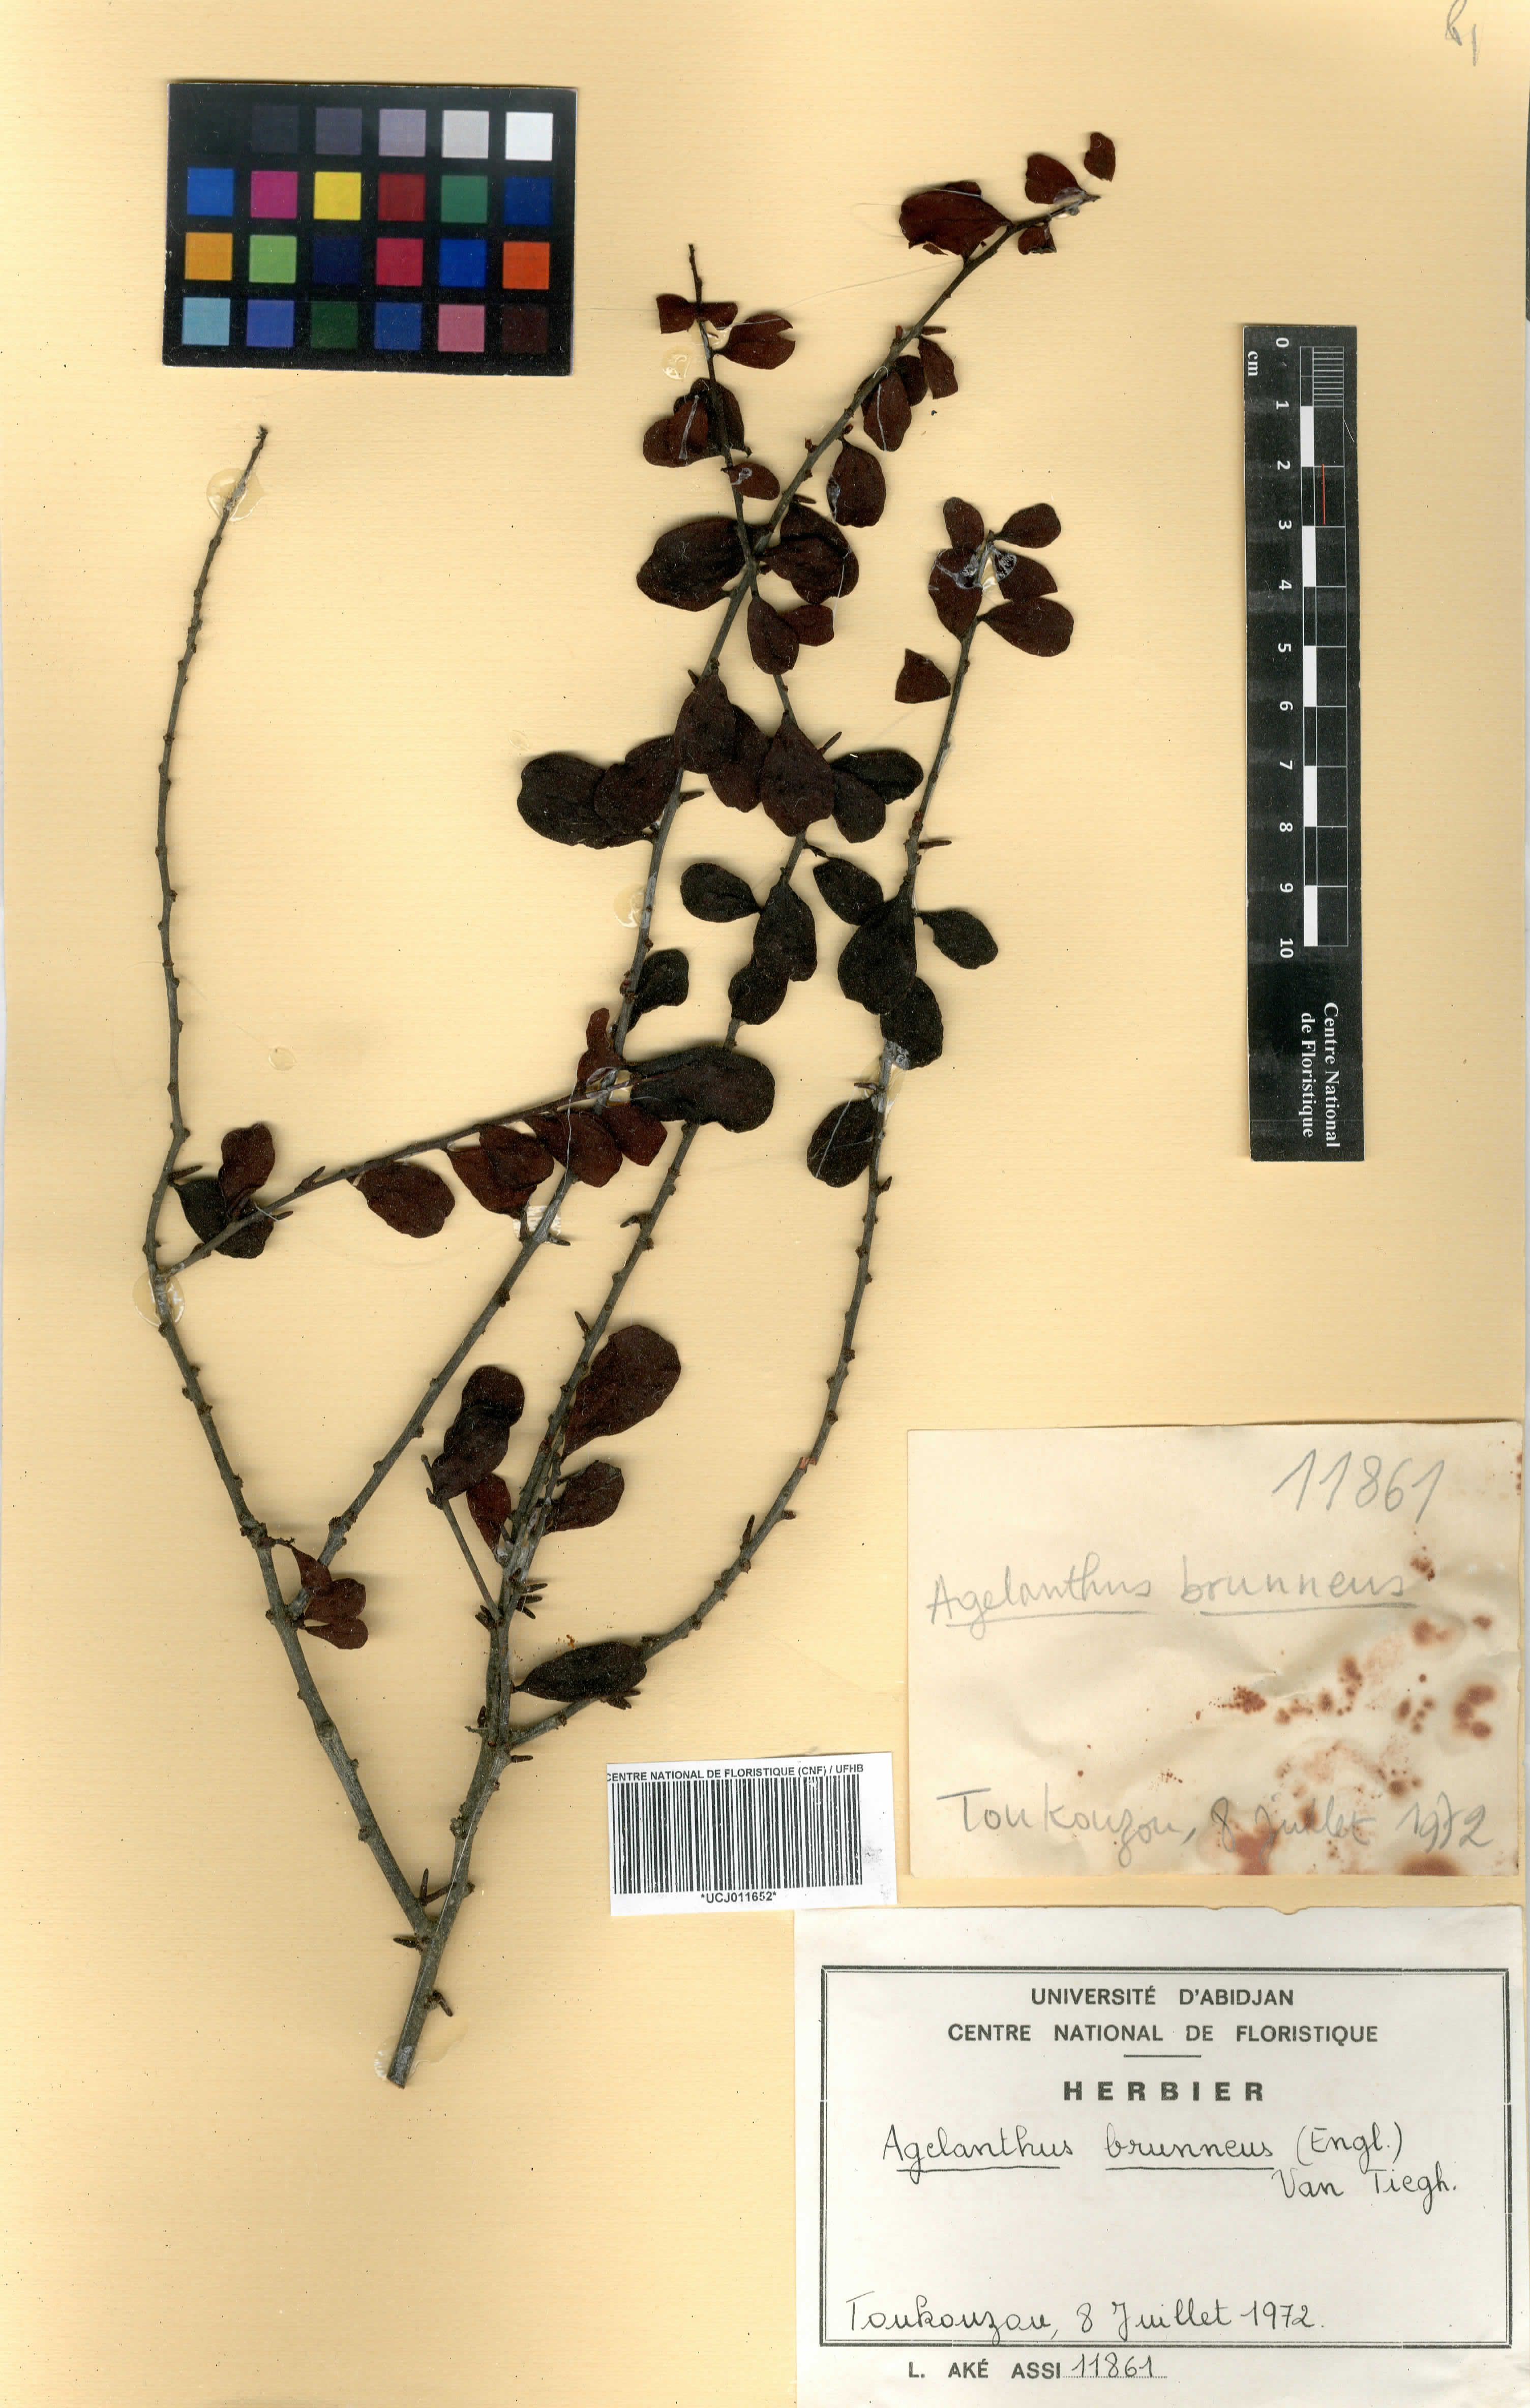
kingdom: Plantae
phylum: Tracheophyta
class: Magnoliopsida
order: Santalales
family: Loranthaceae
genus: Agelanthus
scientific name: Agelanthus brunneus
